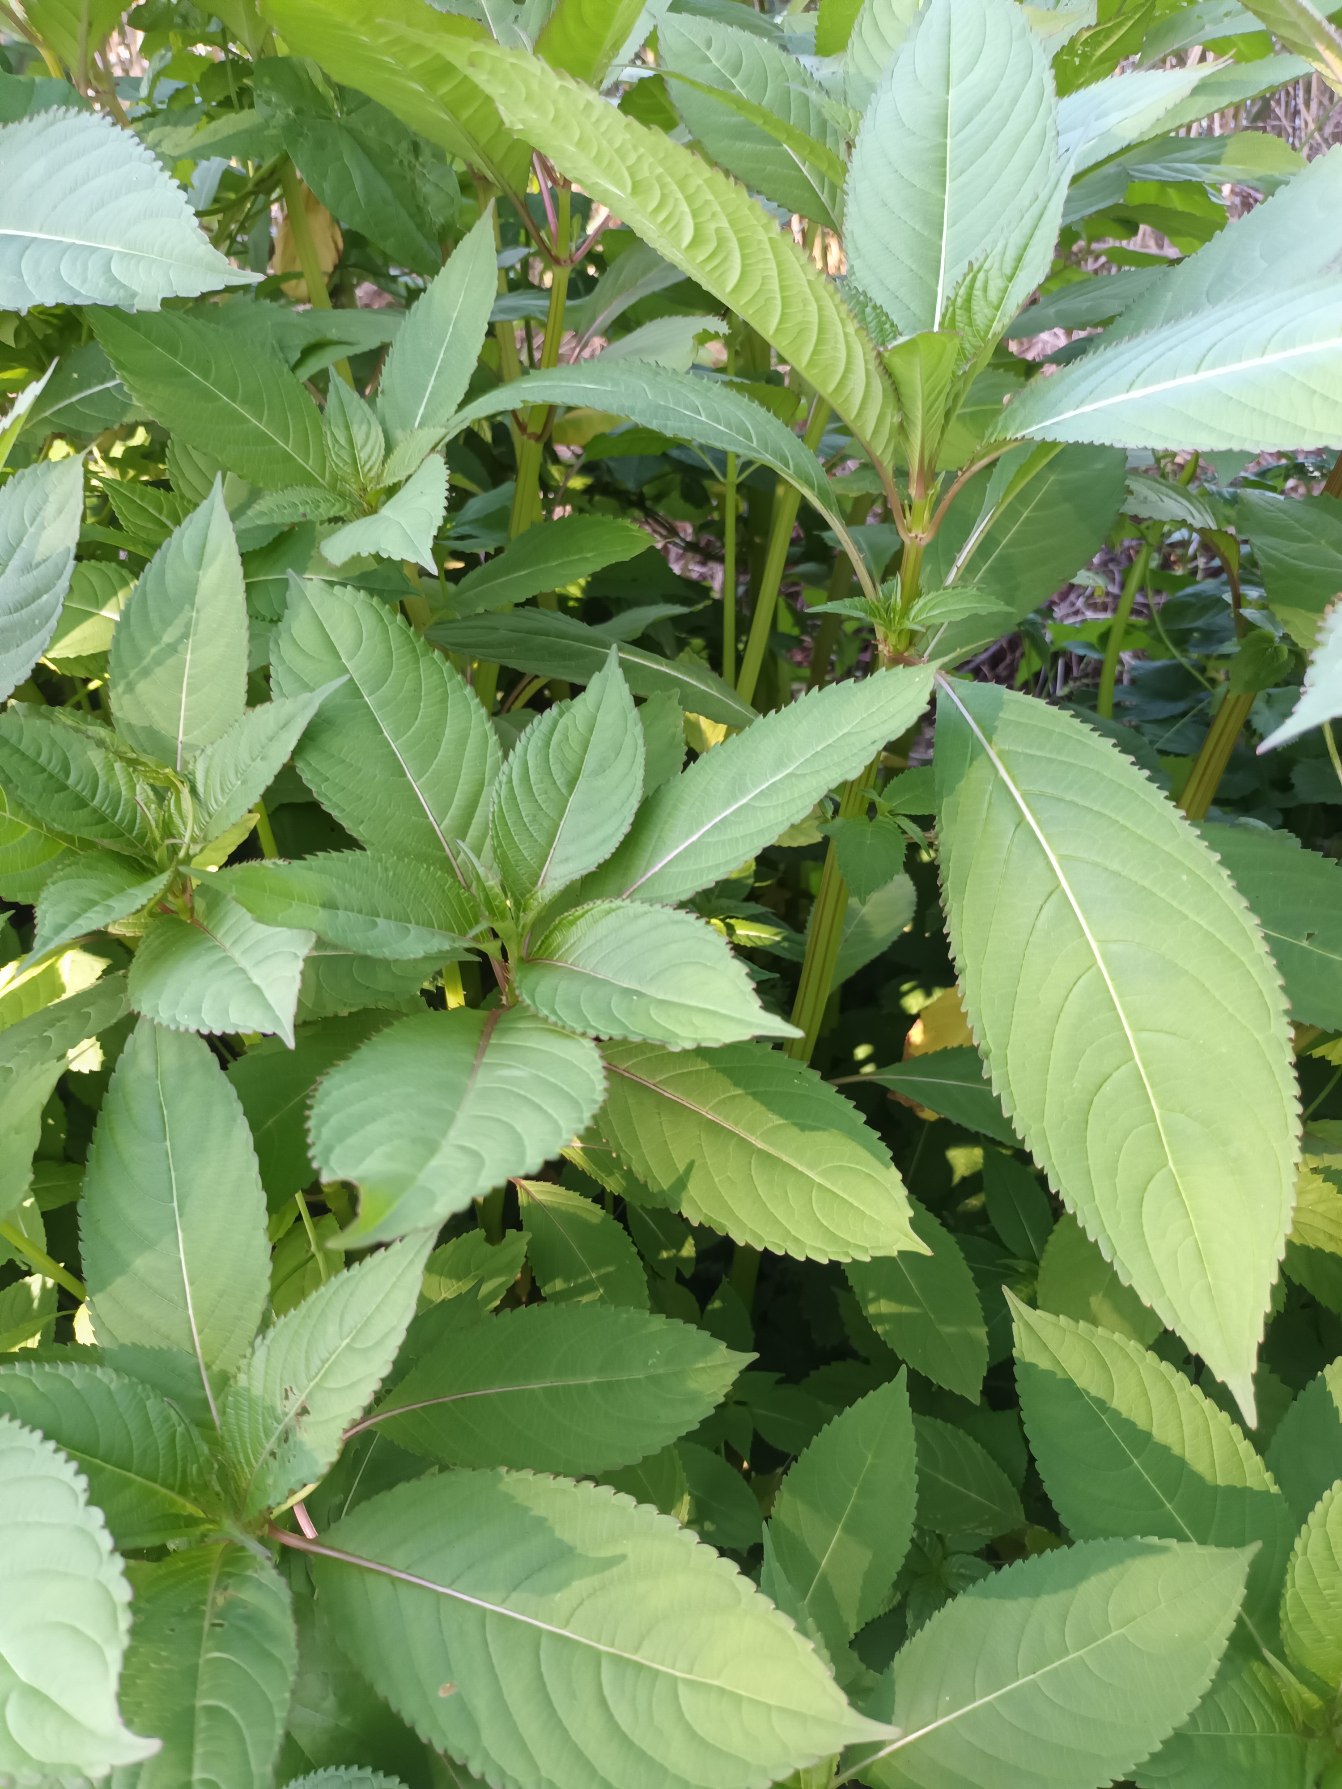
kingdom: Plantae
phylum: Tracheophyta
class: Magnoliopsida
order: Ericales
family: Balsaminaceae
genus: Impatiens
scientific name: Impatiens glandulifera
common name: Kæmpe-balsamin
